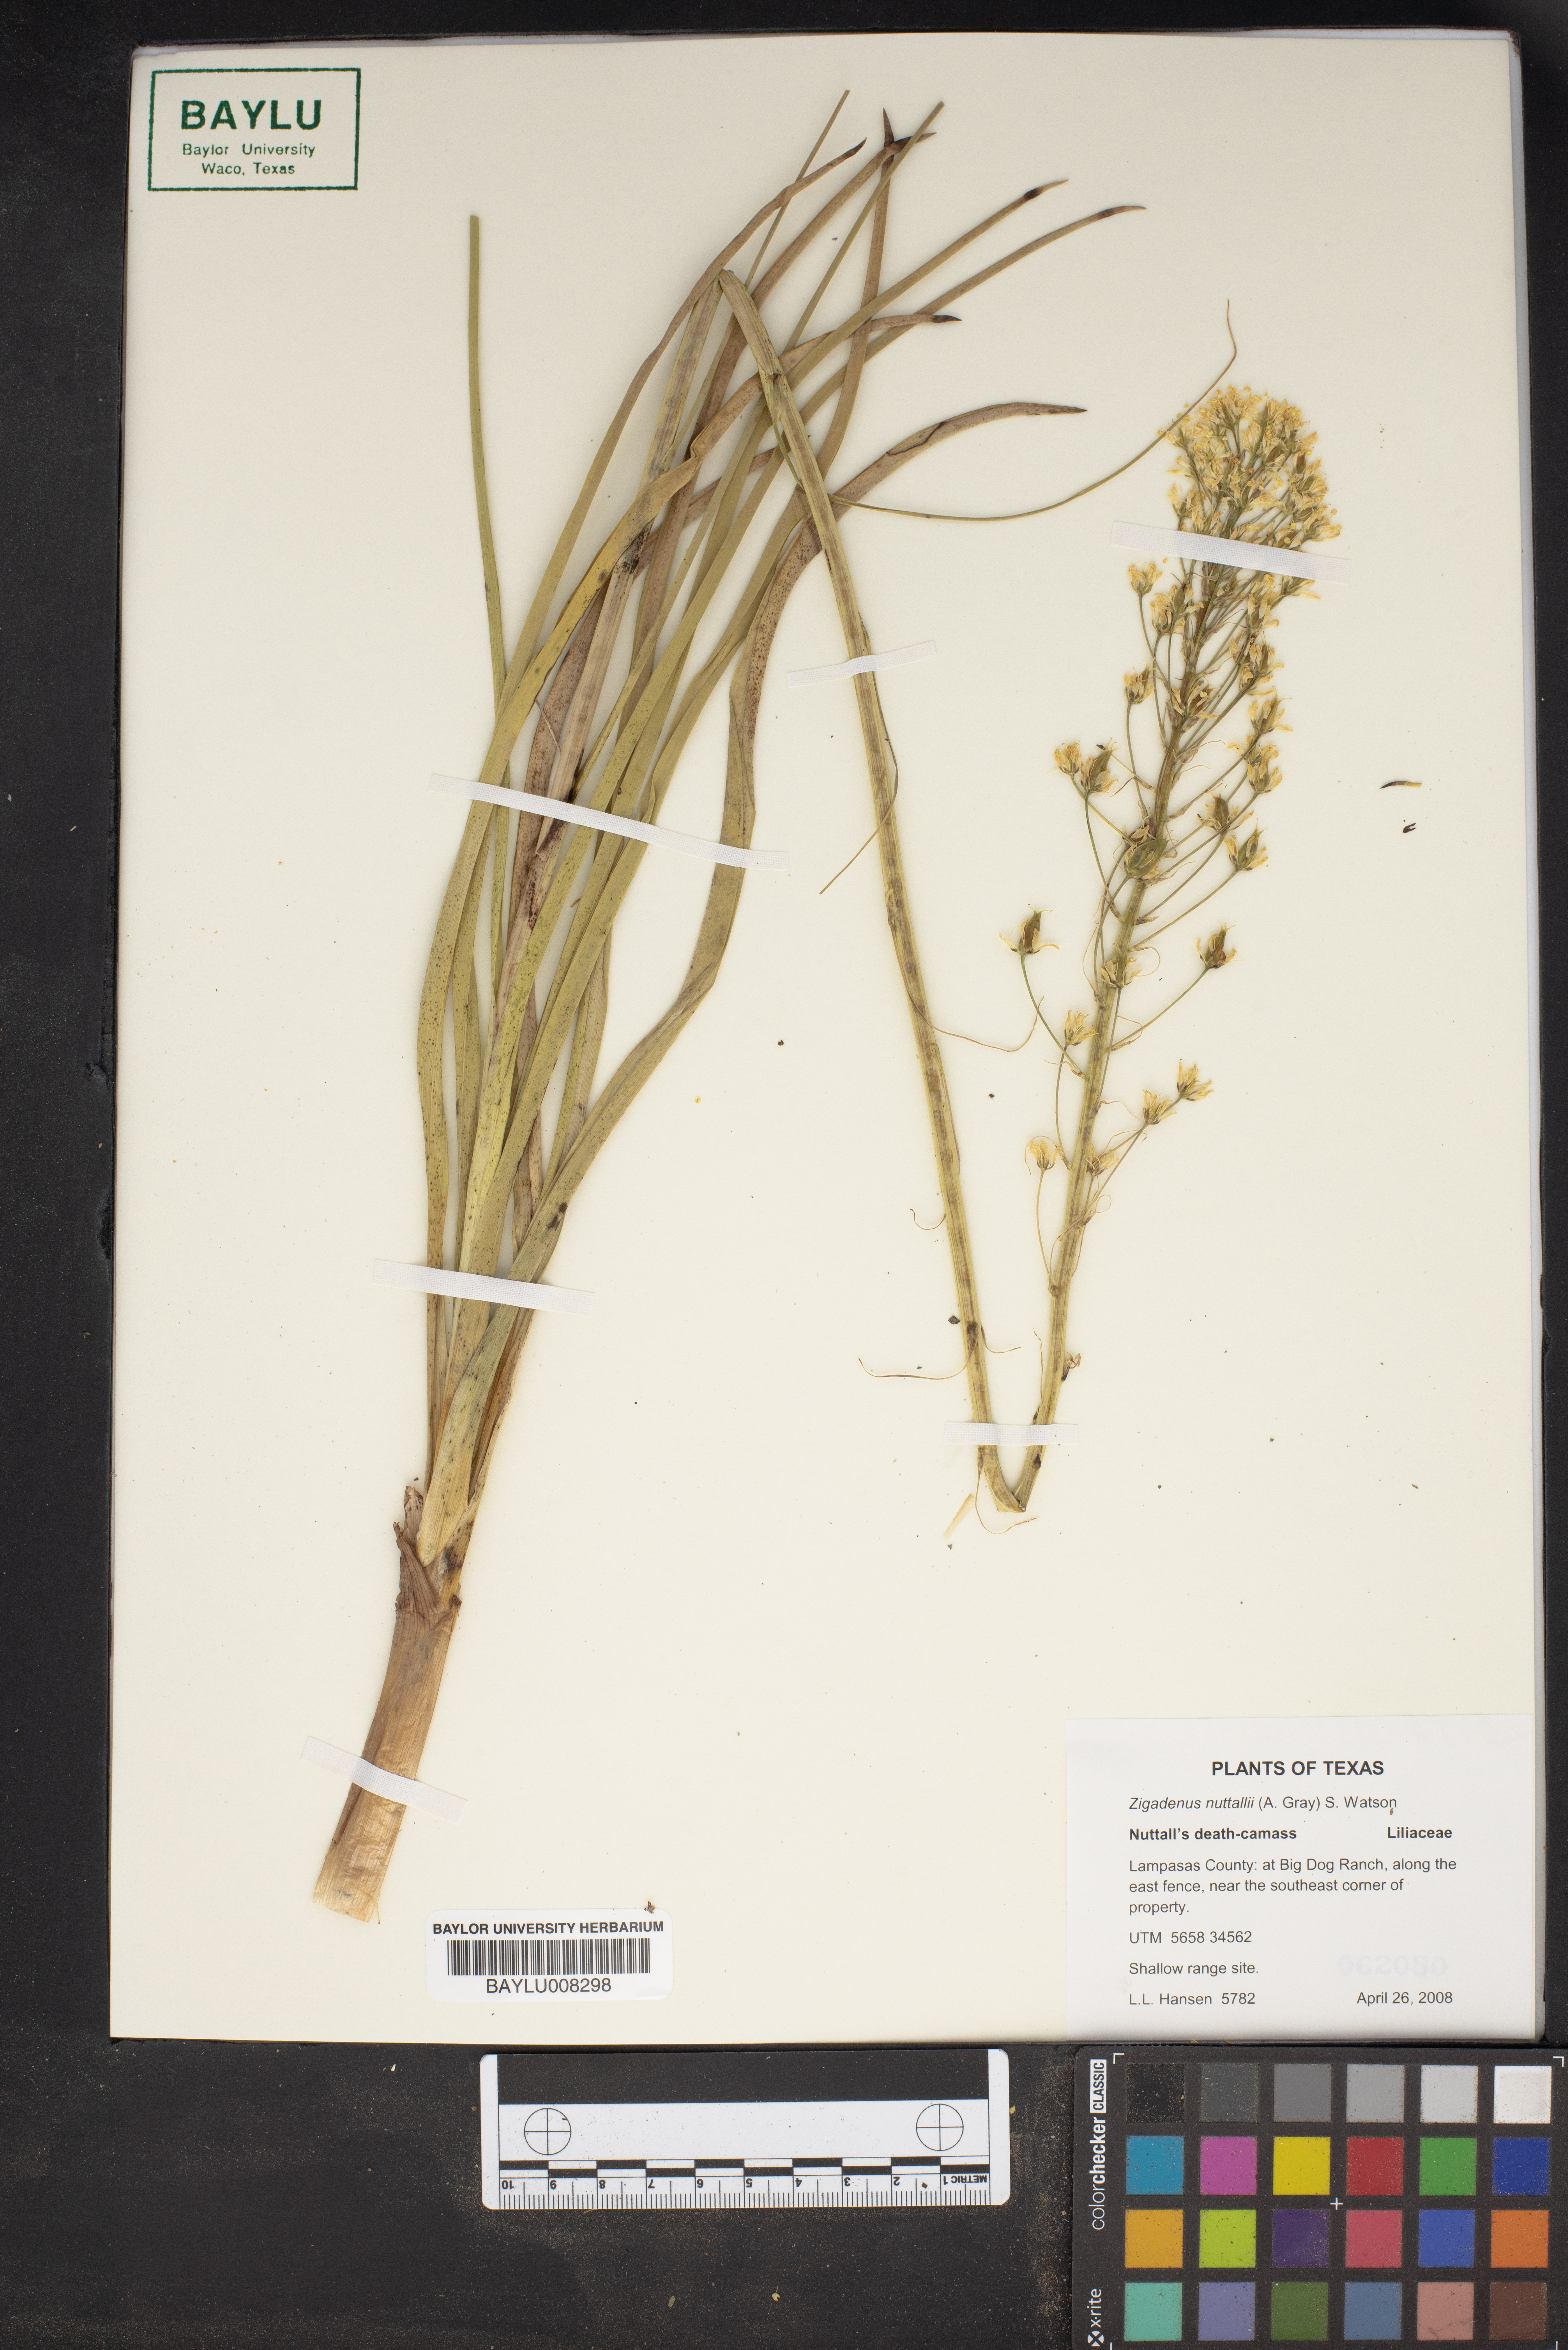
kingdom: Plantae
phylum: Tracheophyta
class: Liliopsida
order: Liliales
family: Melanthiaceae
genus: Toxicoscordion
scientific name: Toxicoscordion nuttallii
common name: Poison sego
